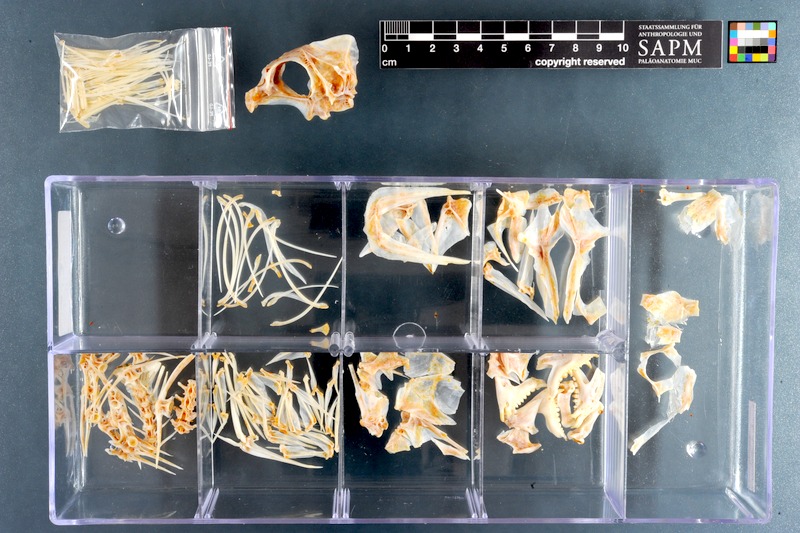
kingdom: Animalia
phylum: Chordata
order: Perciformes
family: Sparidae
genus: Porcostoma
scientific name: Porcostoma dentata
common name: Dane
